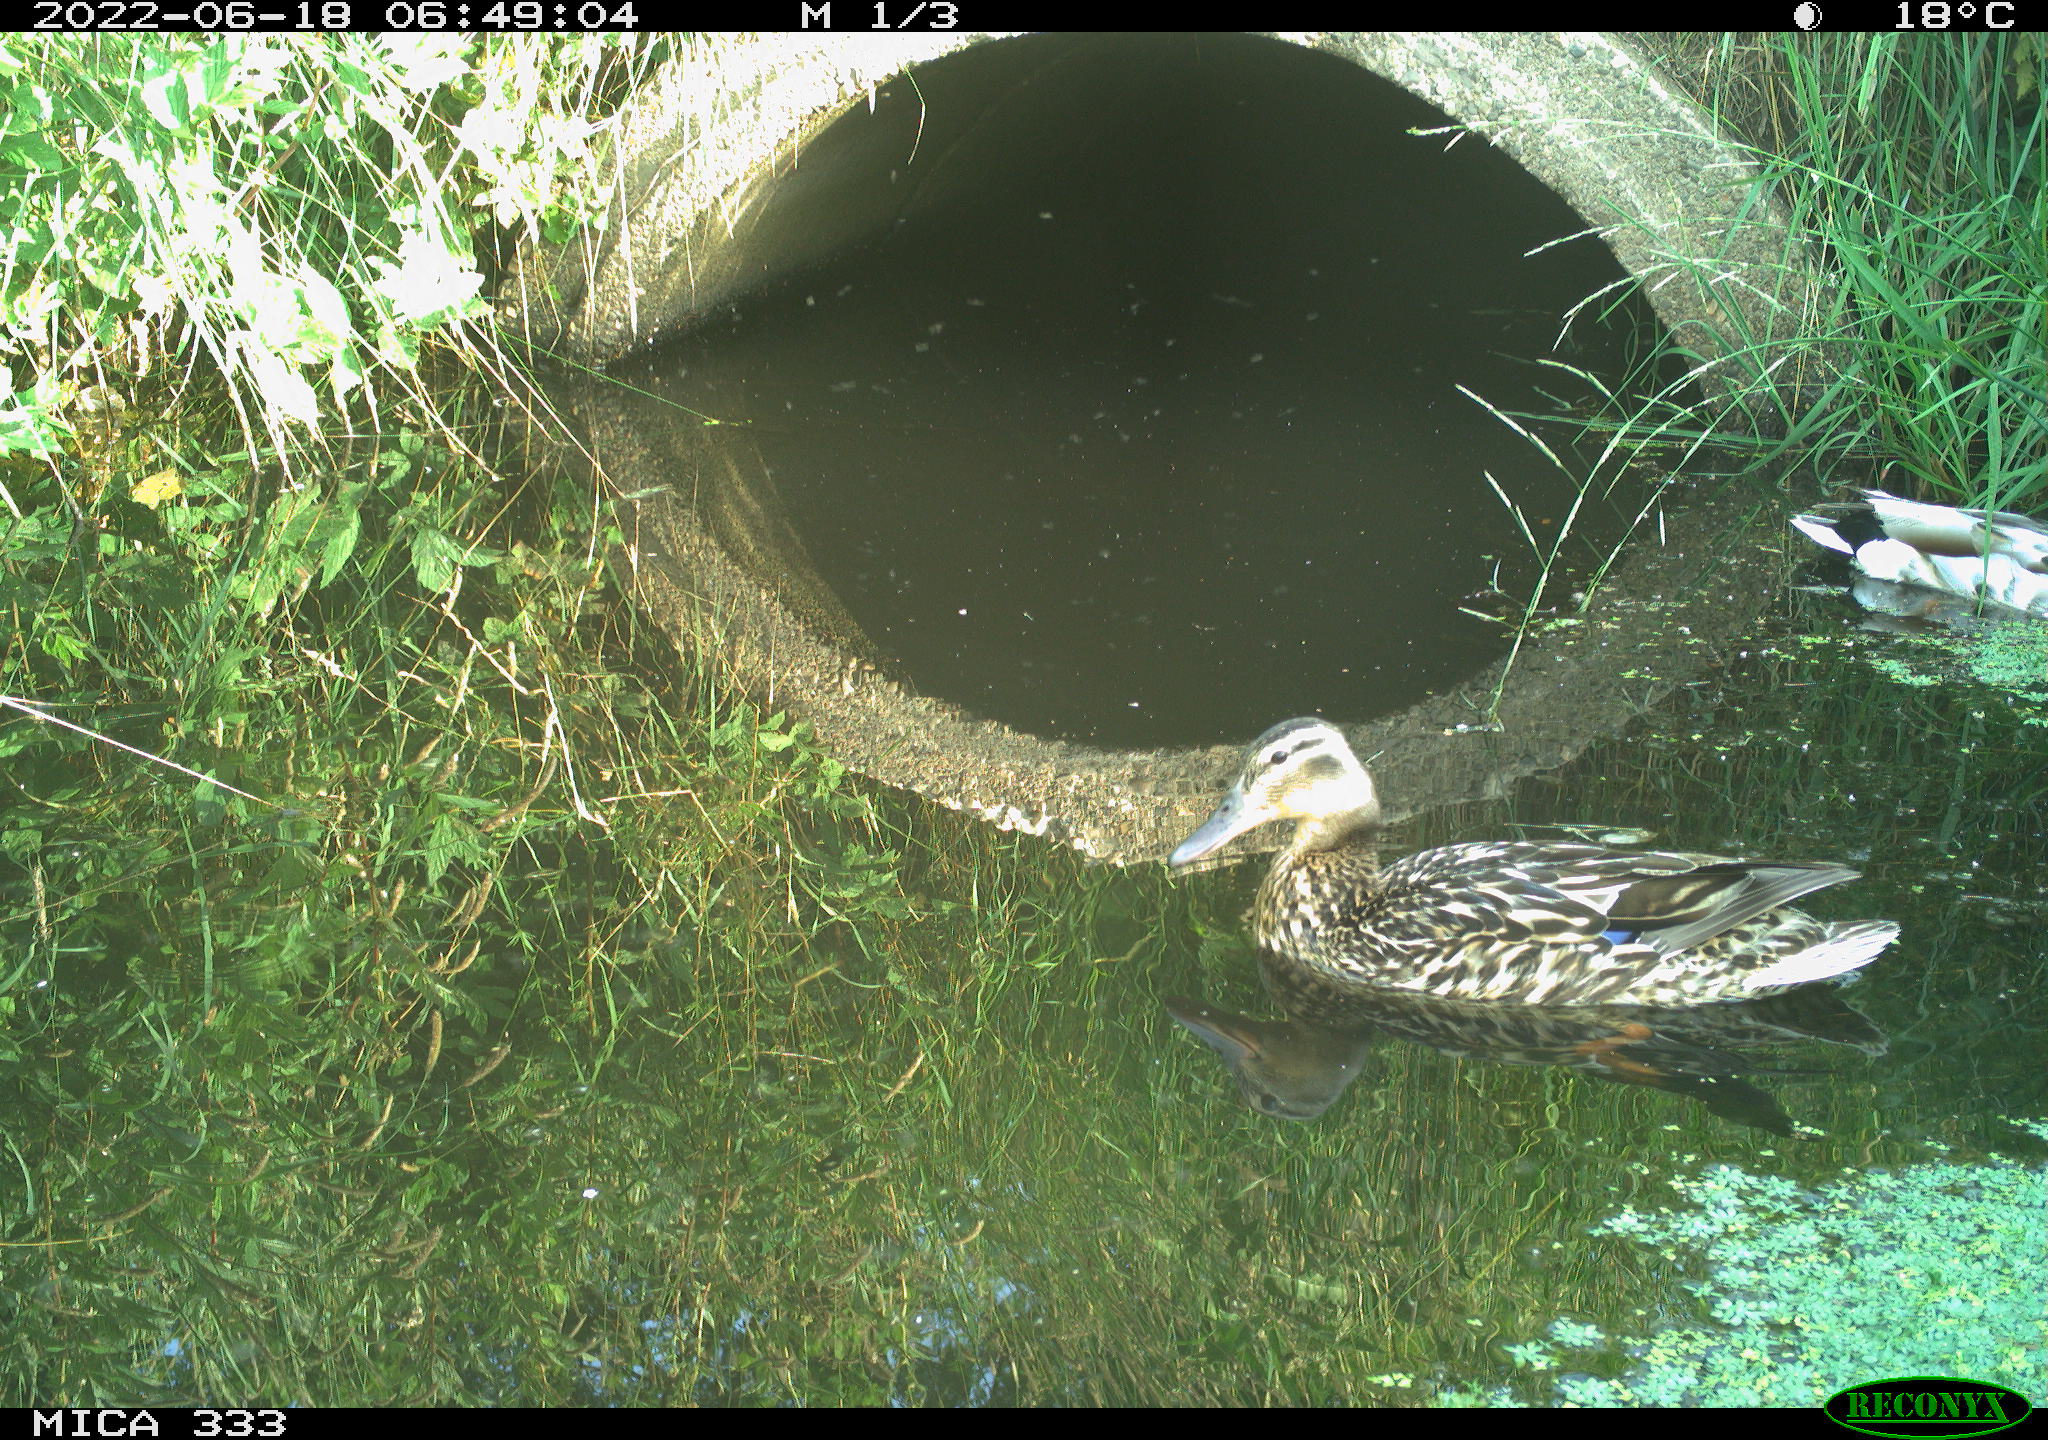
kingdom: Animalia
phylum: Chordata
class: Aves
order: Anseriformes
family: Anatidae
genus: Anas
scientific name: Anas platyrhynchos
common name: Mallard
